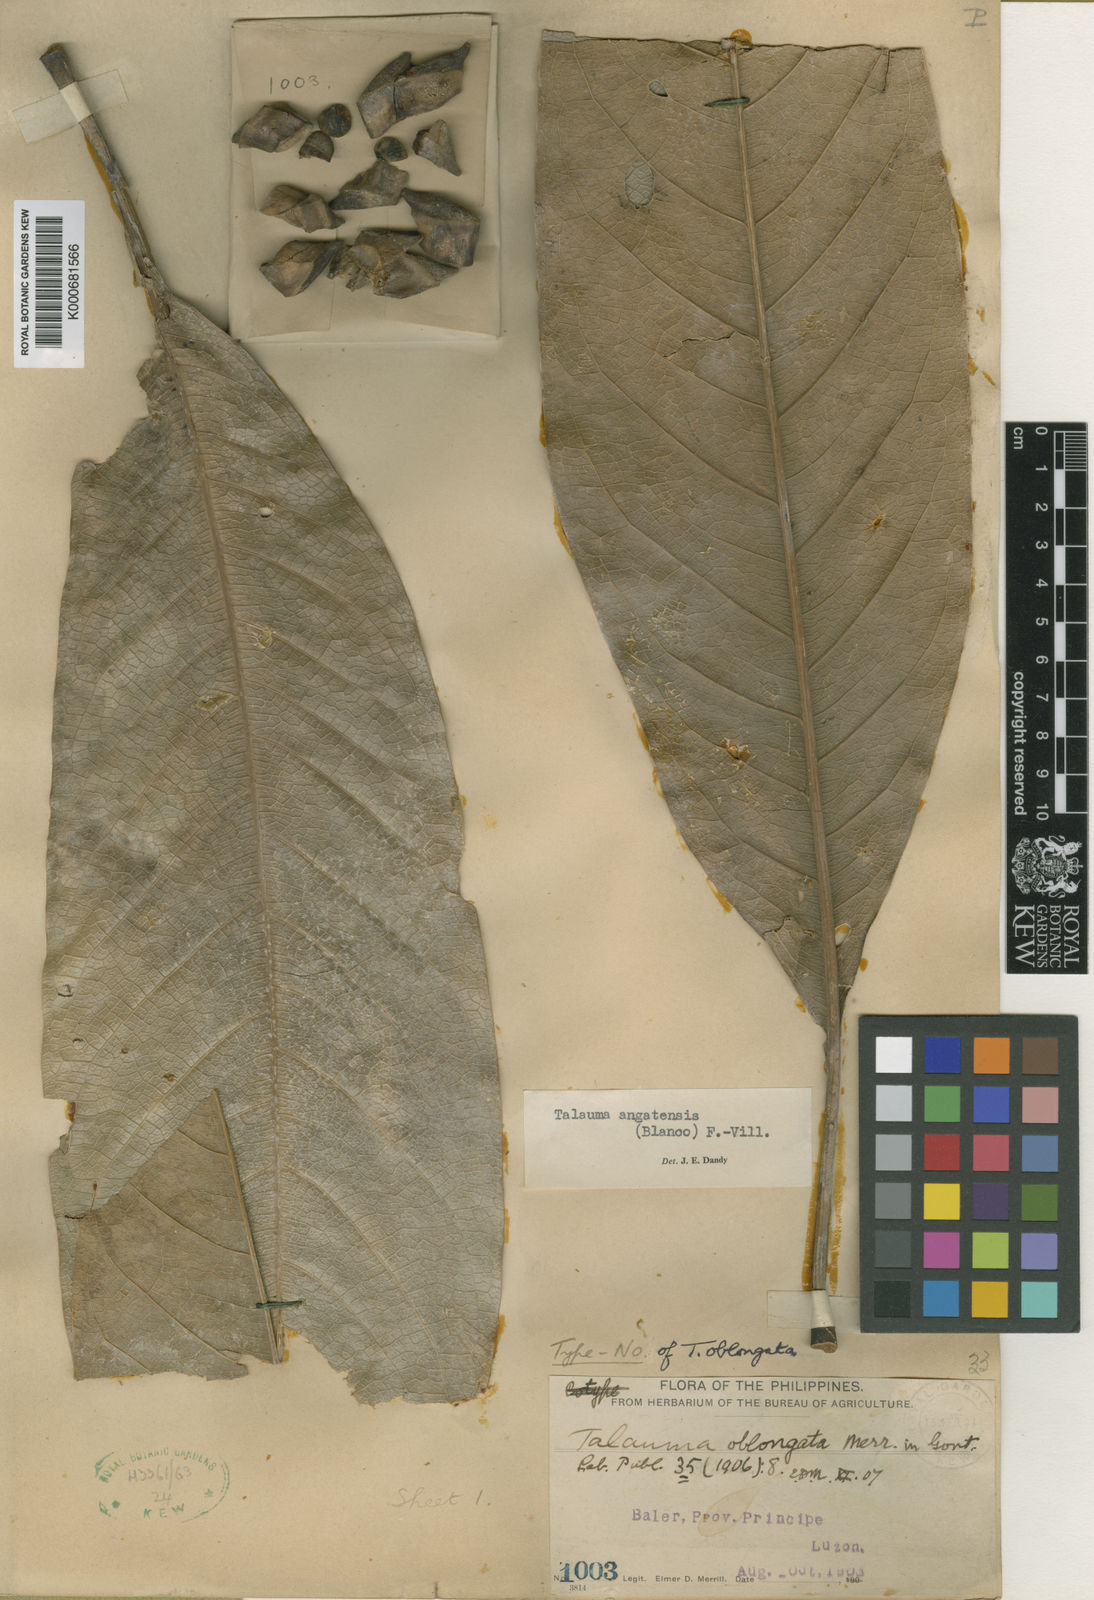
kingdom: Plantae
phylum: Tracheophyta
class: Magnoliopsida
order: Magnoliales
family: Magnoliaceae
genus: Magnolia
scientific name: Magnolia angatensis
